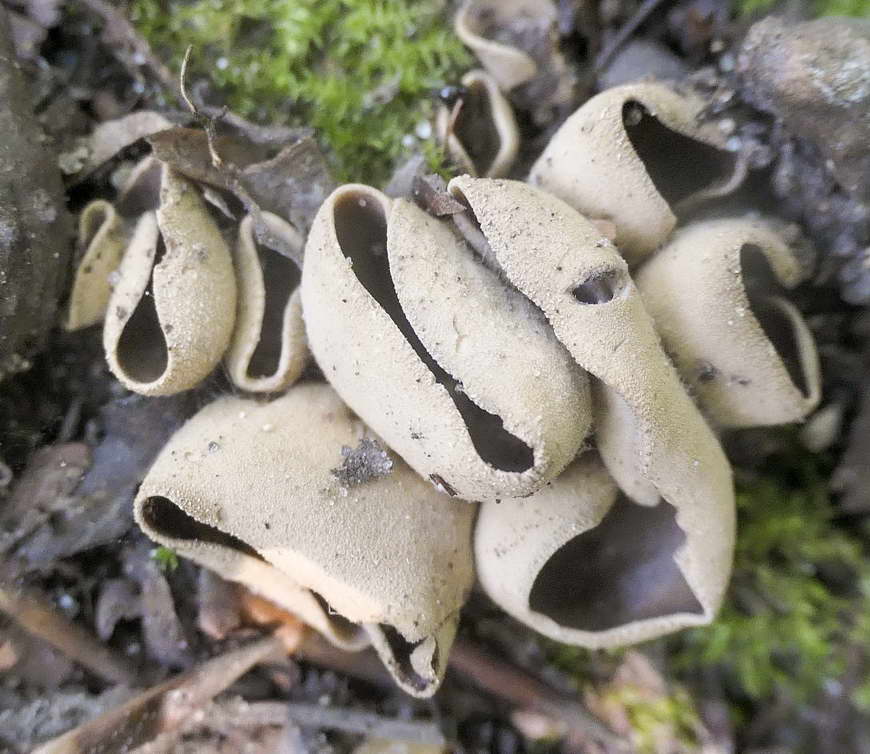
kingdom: Fungi
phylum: Ascomycota
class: Pezizomycetes
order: Pezizales
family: Otideaceae
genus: Otidea
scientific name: Otidea alutacea
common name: læder-ørebæger
